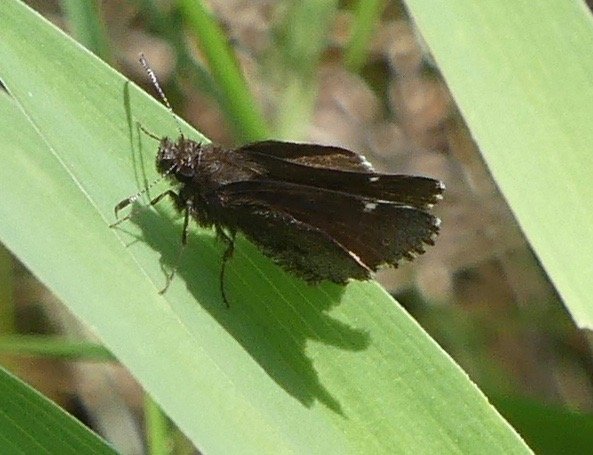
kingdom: Animalia
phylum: Arthropoda
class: Insecta
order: Lepidoptera
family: Hesperiidae
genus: Mastor
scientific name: Mastor vialis
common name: Common Roadside-Skipper
